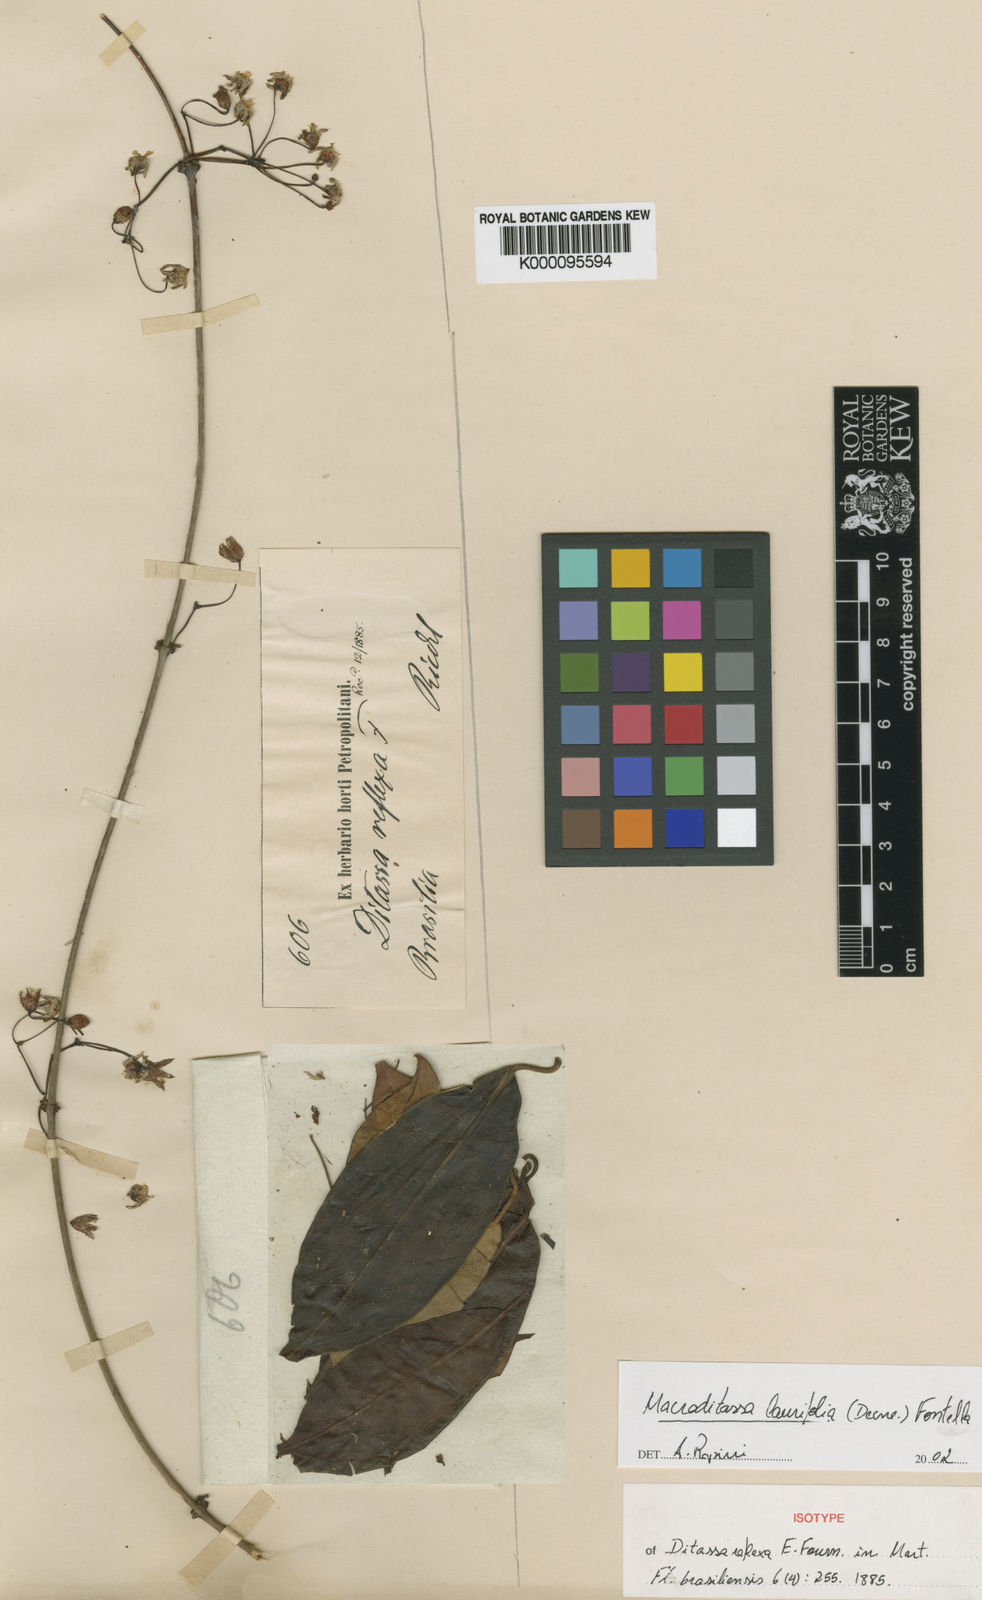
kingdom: Plantae
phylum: Tracheophyta
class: Magnoliopsida
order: Gentianales
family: Apocynaceae
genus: Nephradenia
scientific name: Nephradenia laurifolia
